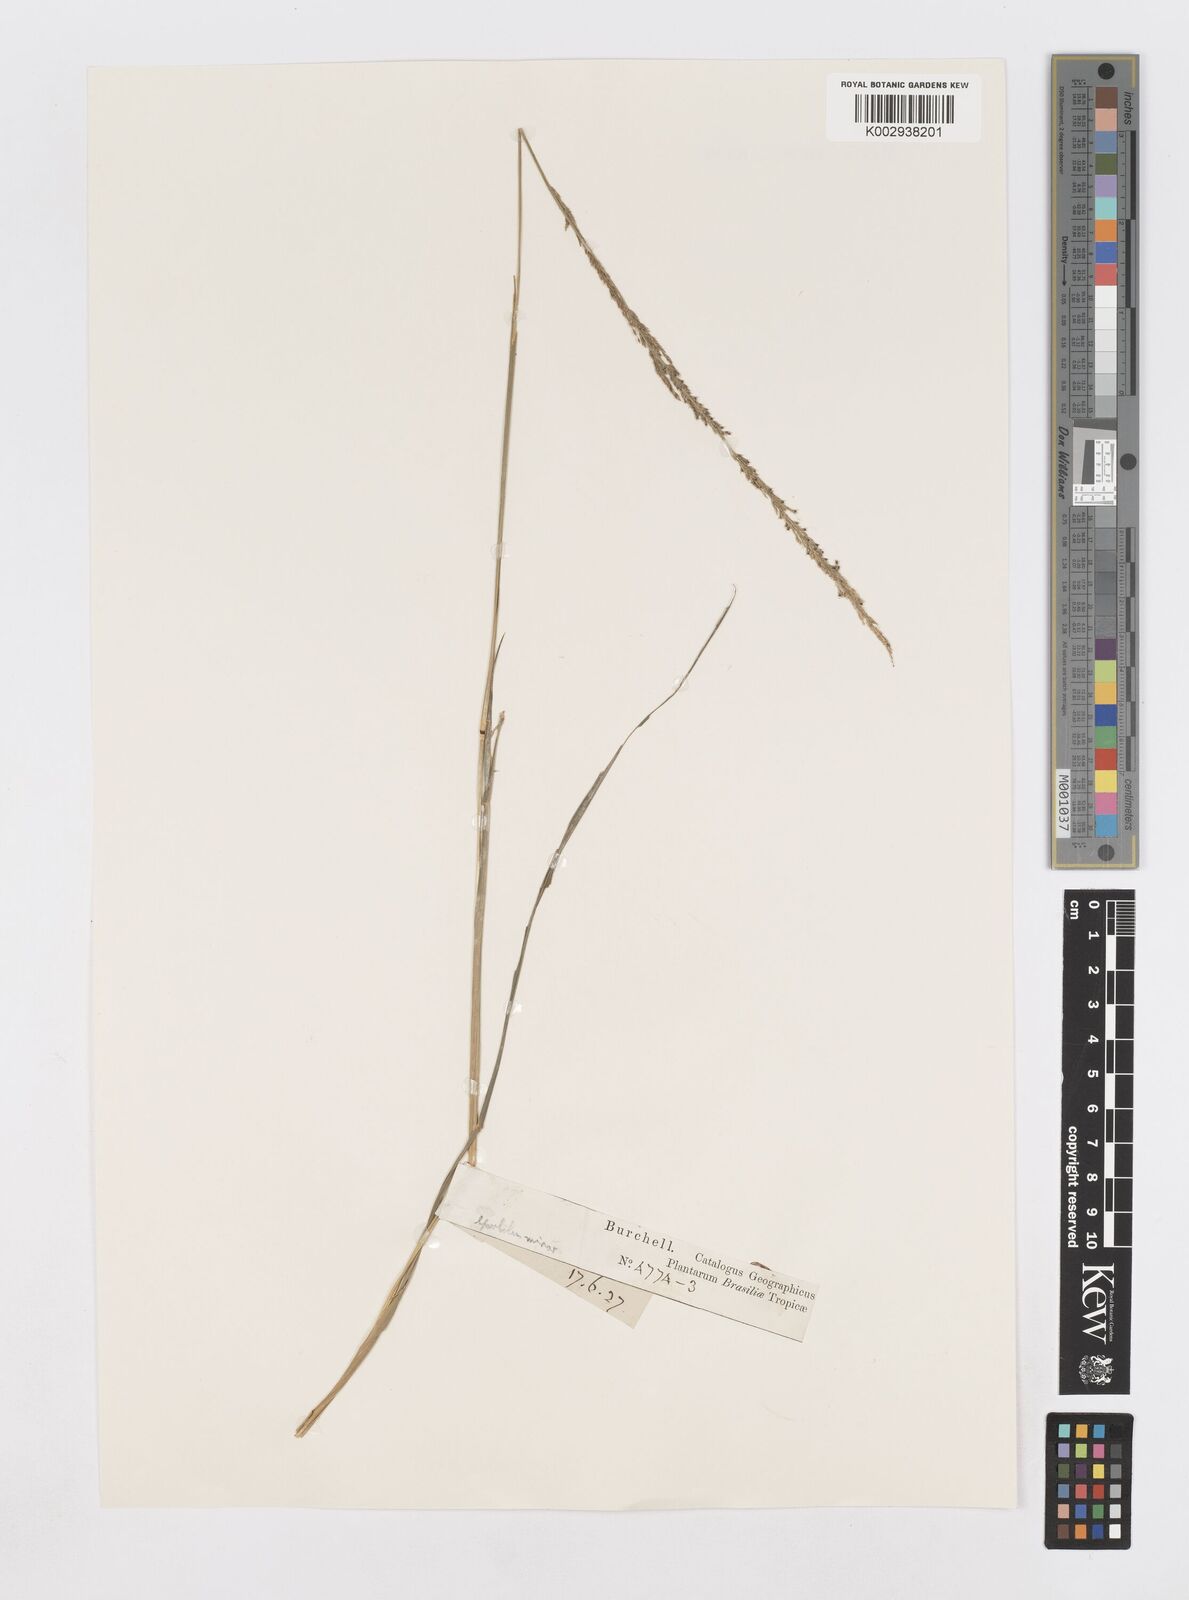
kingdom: Plantae
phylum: Tracheophyta
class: Liliopsida
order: Poales
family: Poaceae
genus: Sporobolus
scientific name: Sporobolus indicus
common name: Smut grass
